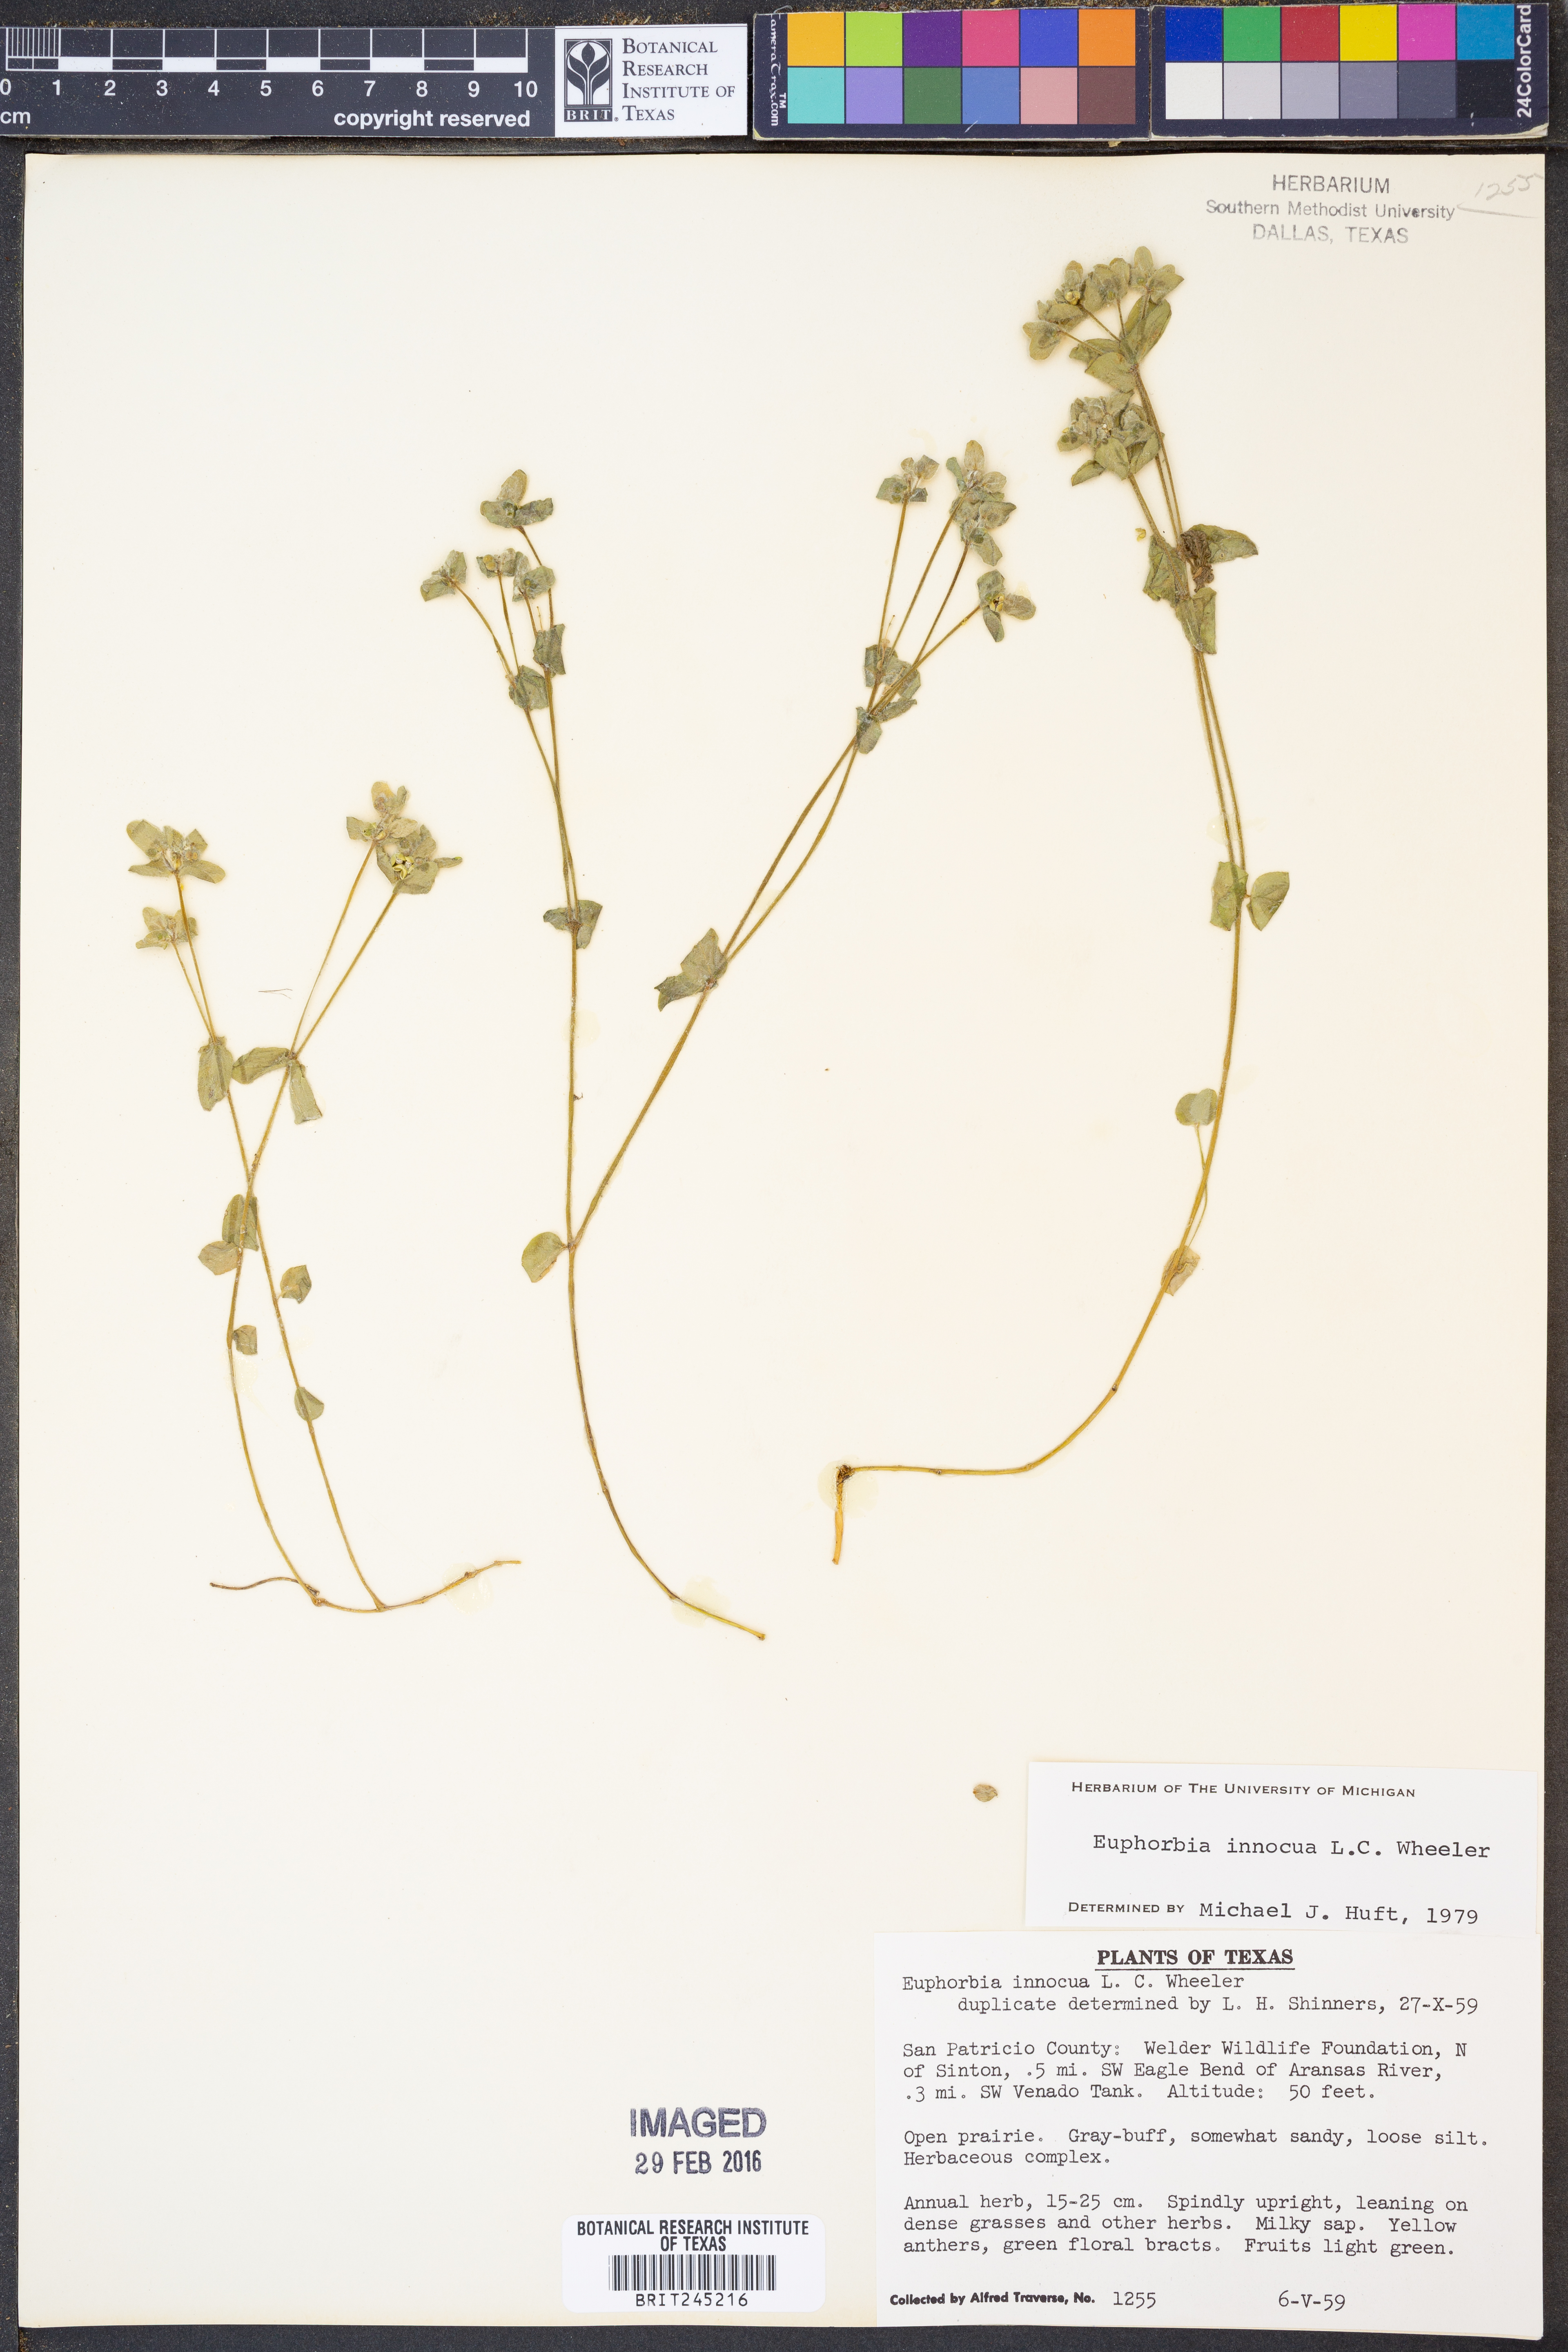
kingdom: Plantae
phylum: Tracheophyta
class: Magnoliopsida
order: Malpighiales
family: Euphorbiaceae
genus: Euphorbia
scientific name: Euphorbia innocua
